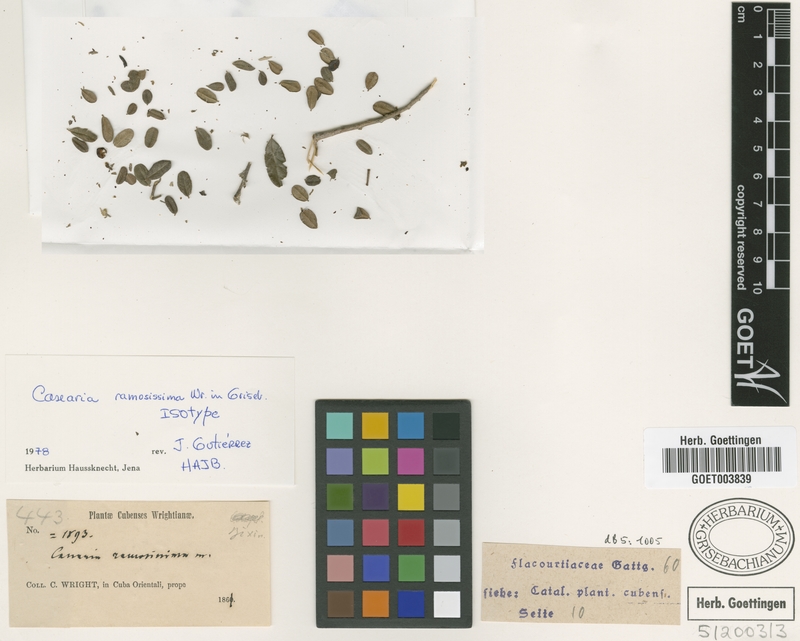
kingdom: Plantae
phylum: Tracheophyta
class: Magnoliopsida
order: Malpighiales
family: Salicaceae
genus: Casearia
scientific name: Casearia ramosissima
